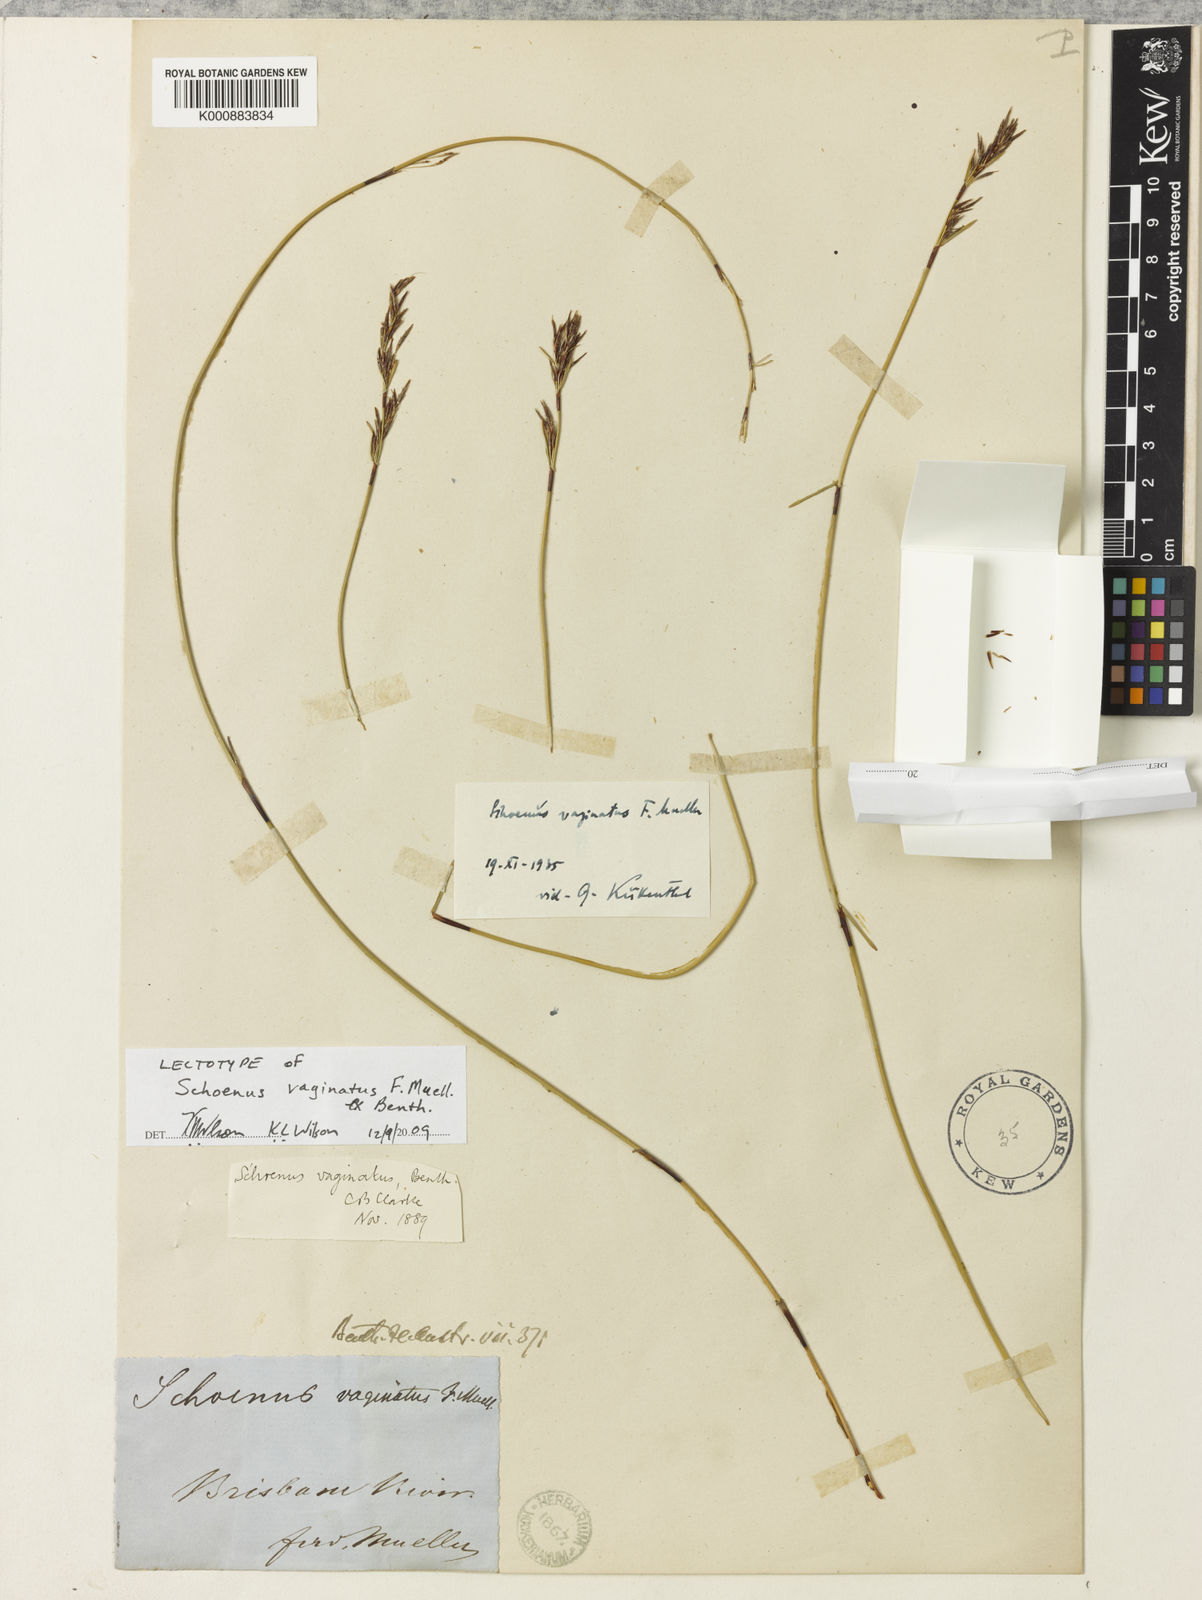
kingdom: Plantae
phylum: Tracheophyta
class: Liliopsida
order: Poales
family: Cyperaceae
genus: Schoenus
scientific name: Schoenus vaginatus
